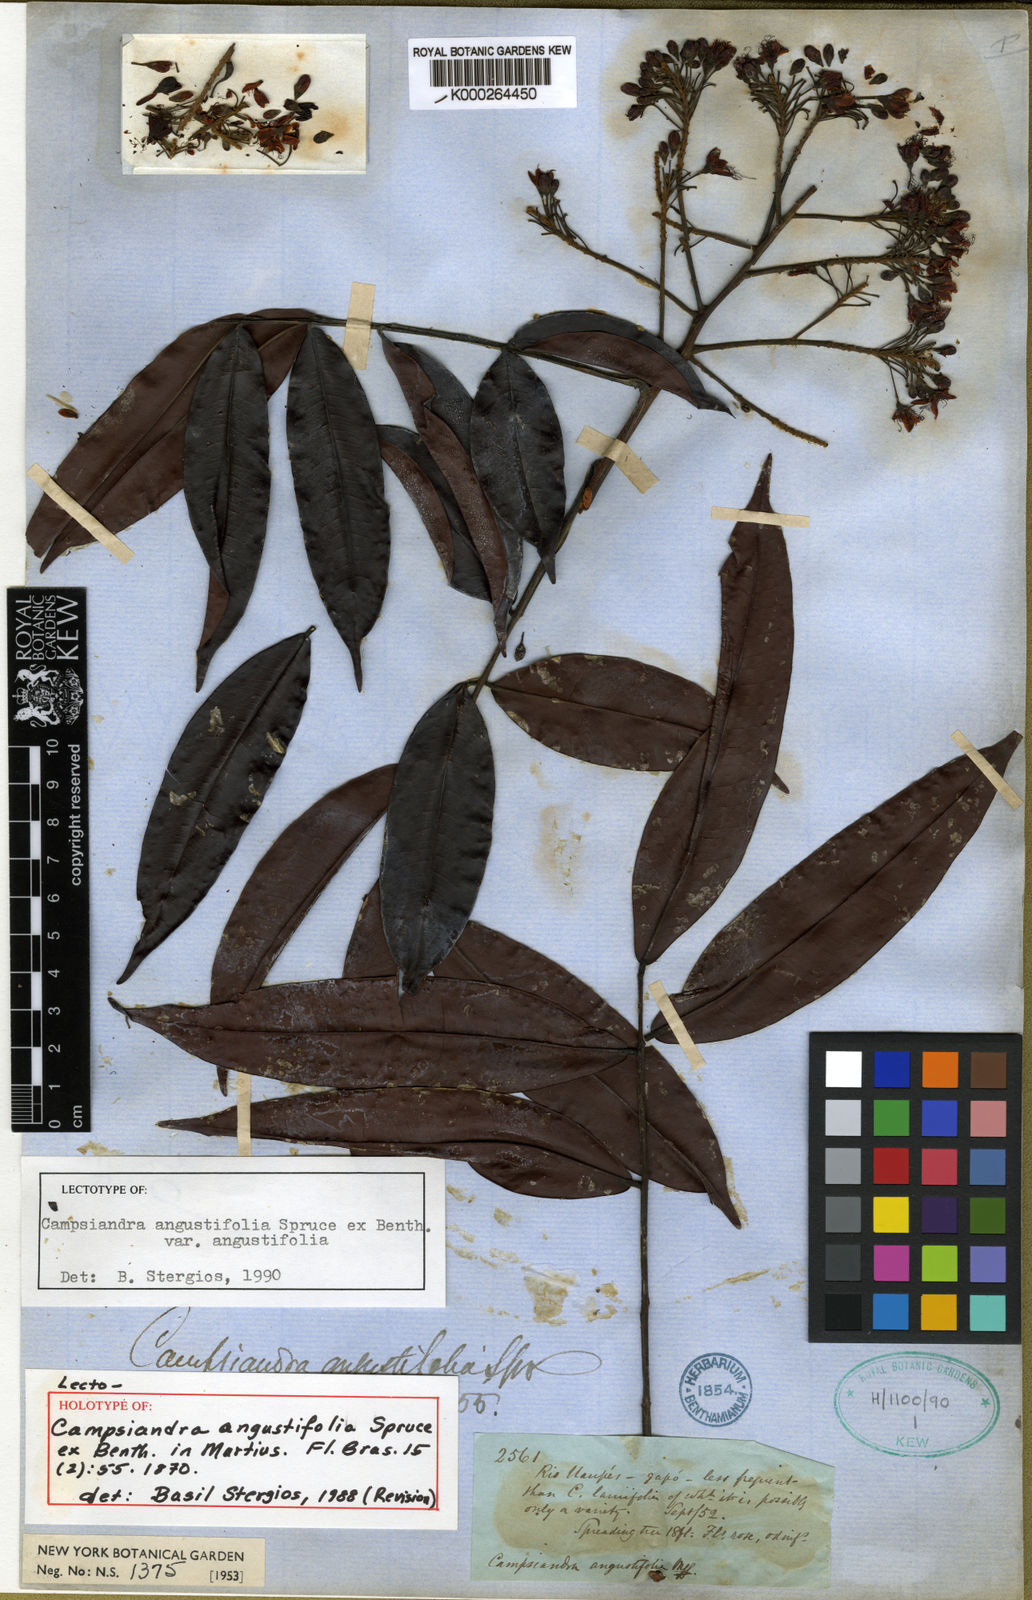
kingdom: Plantae
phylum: Tracheophyta
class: Magnoliopsida
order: Fabales
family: Fabaceae
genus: Campsiandra
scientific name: Campsiandra angustifolia
